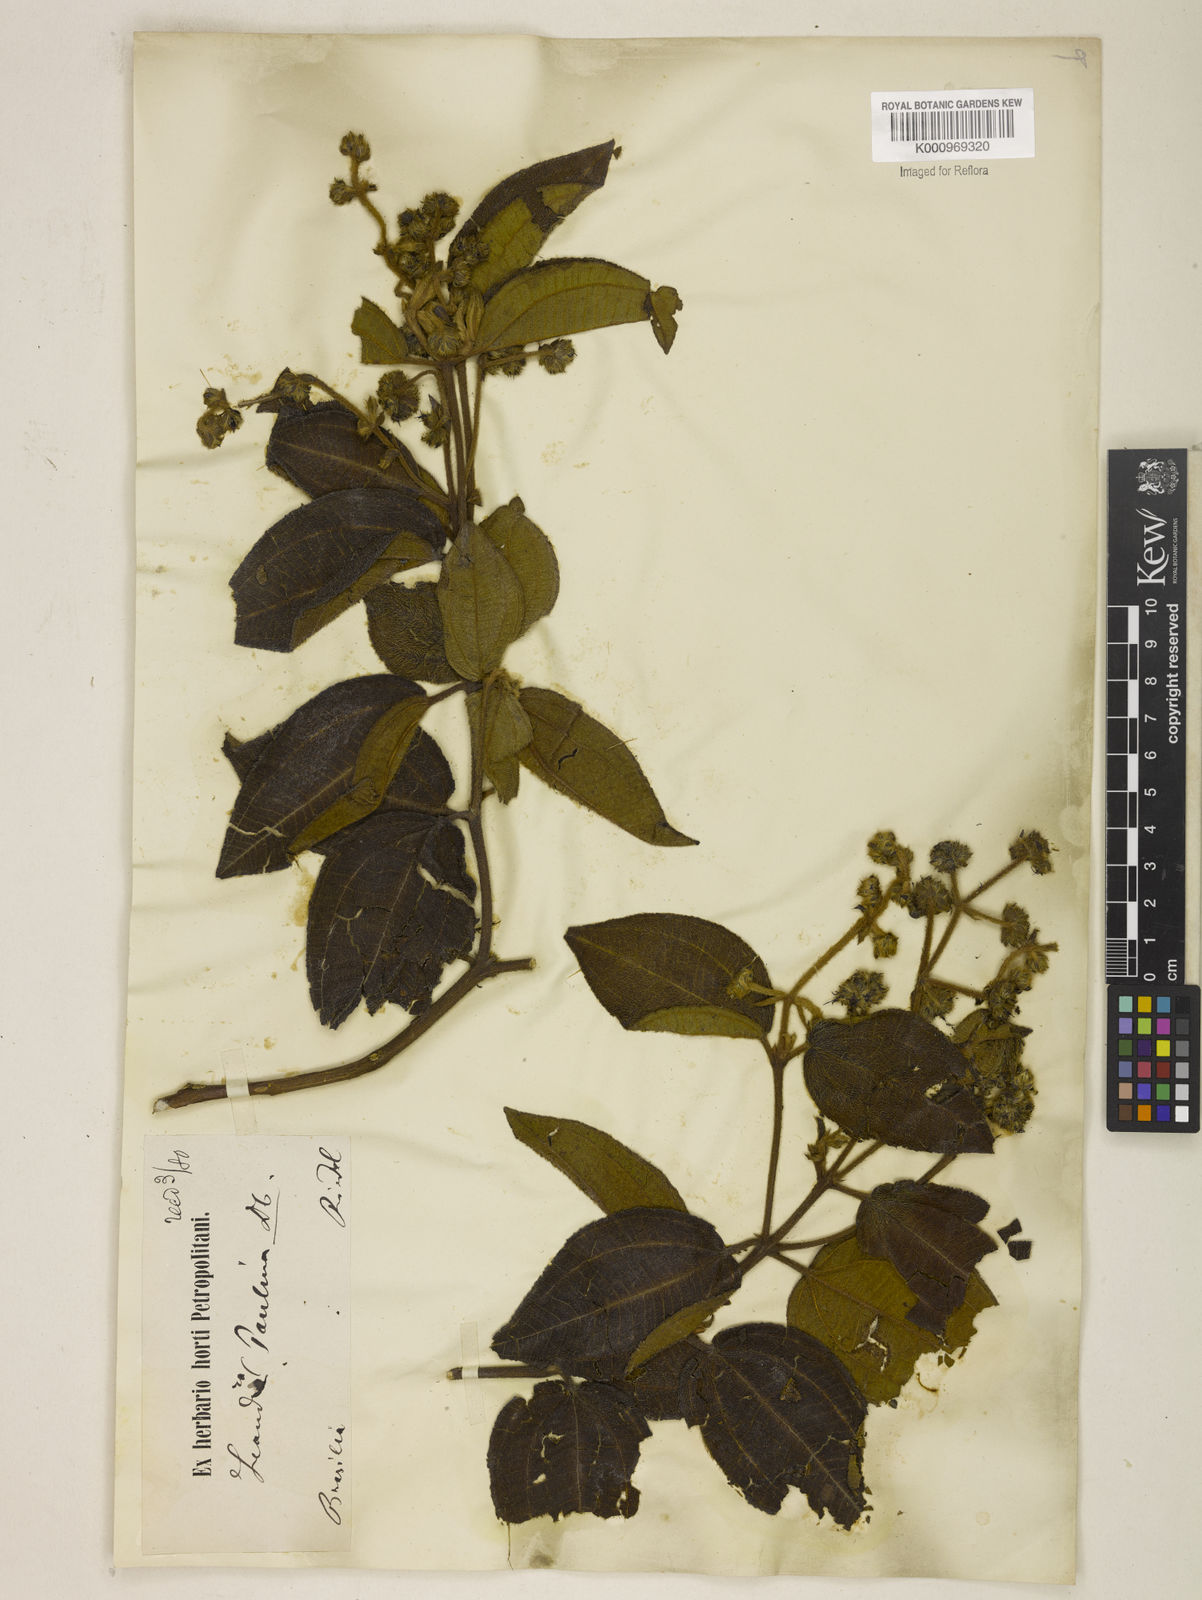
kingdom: Plantae
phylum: Tracheophyta
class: Magnoliopsida
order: Myrtales
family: Melastomataceae
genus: Miconia
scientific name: Miconia paulina
